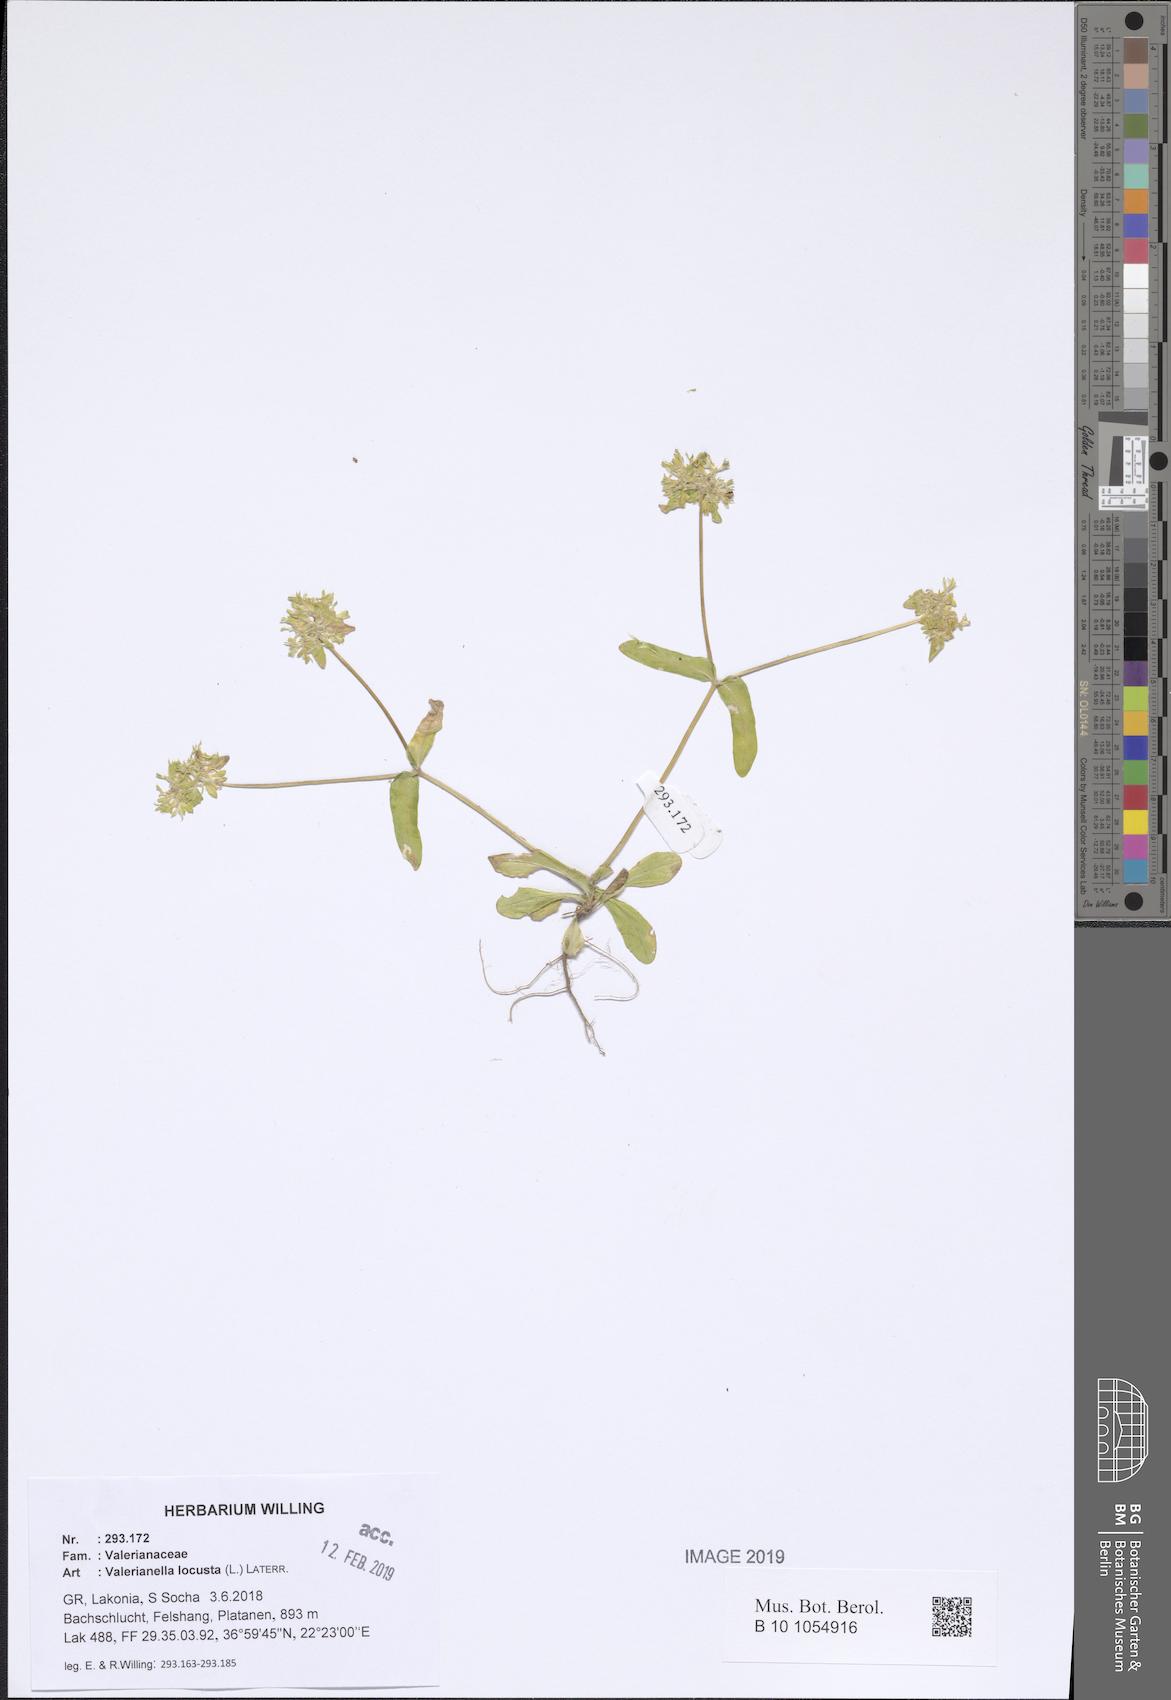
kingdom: Plantae
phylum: Tracheophyta
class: Magnoliopsida
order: Dipsacales
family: Caprifoliaceae
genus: Valerianella
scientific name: Valerianella locusta
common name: Common cornsalad
